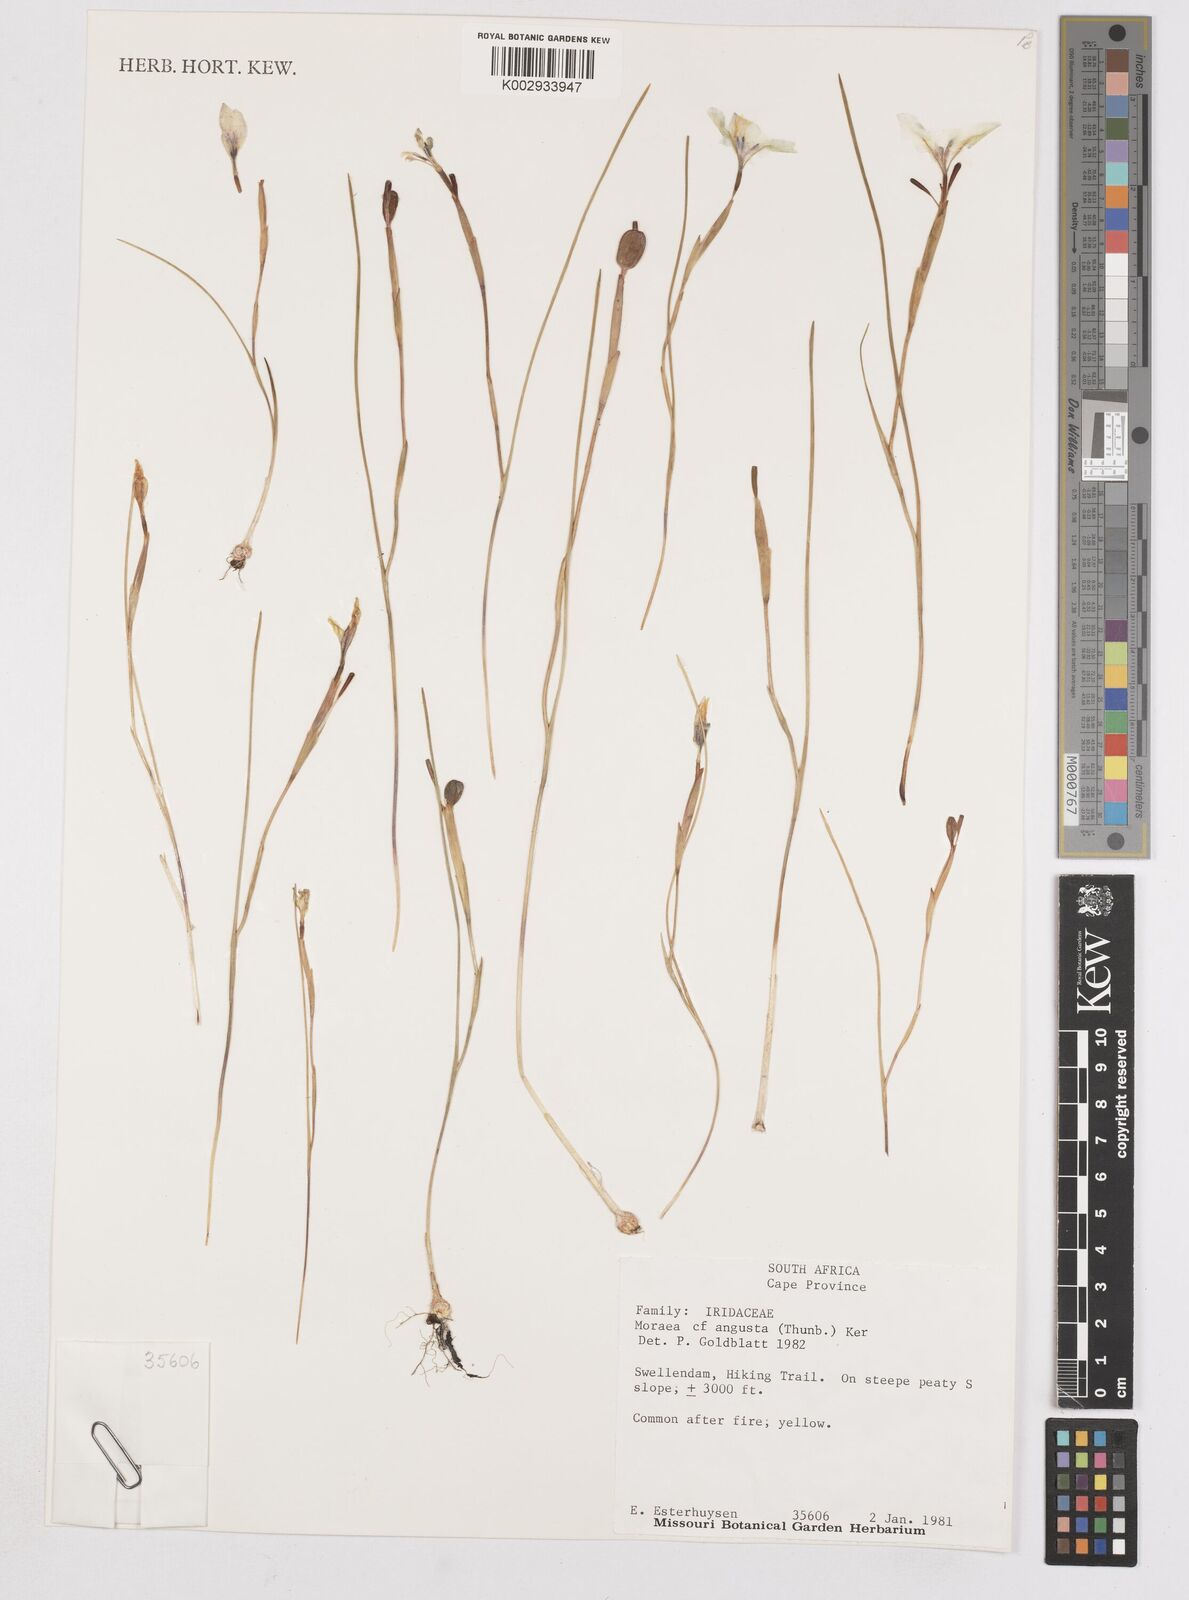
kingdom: Plantae
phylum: Tracheophyta
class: Liliopsida
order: Asparagales
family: Iridaceae
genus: Moraea
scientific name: Moraea angusta
